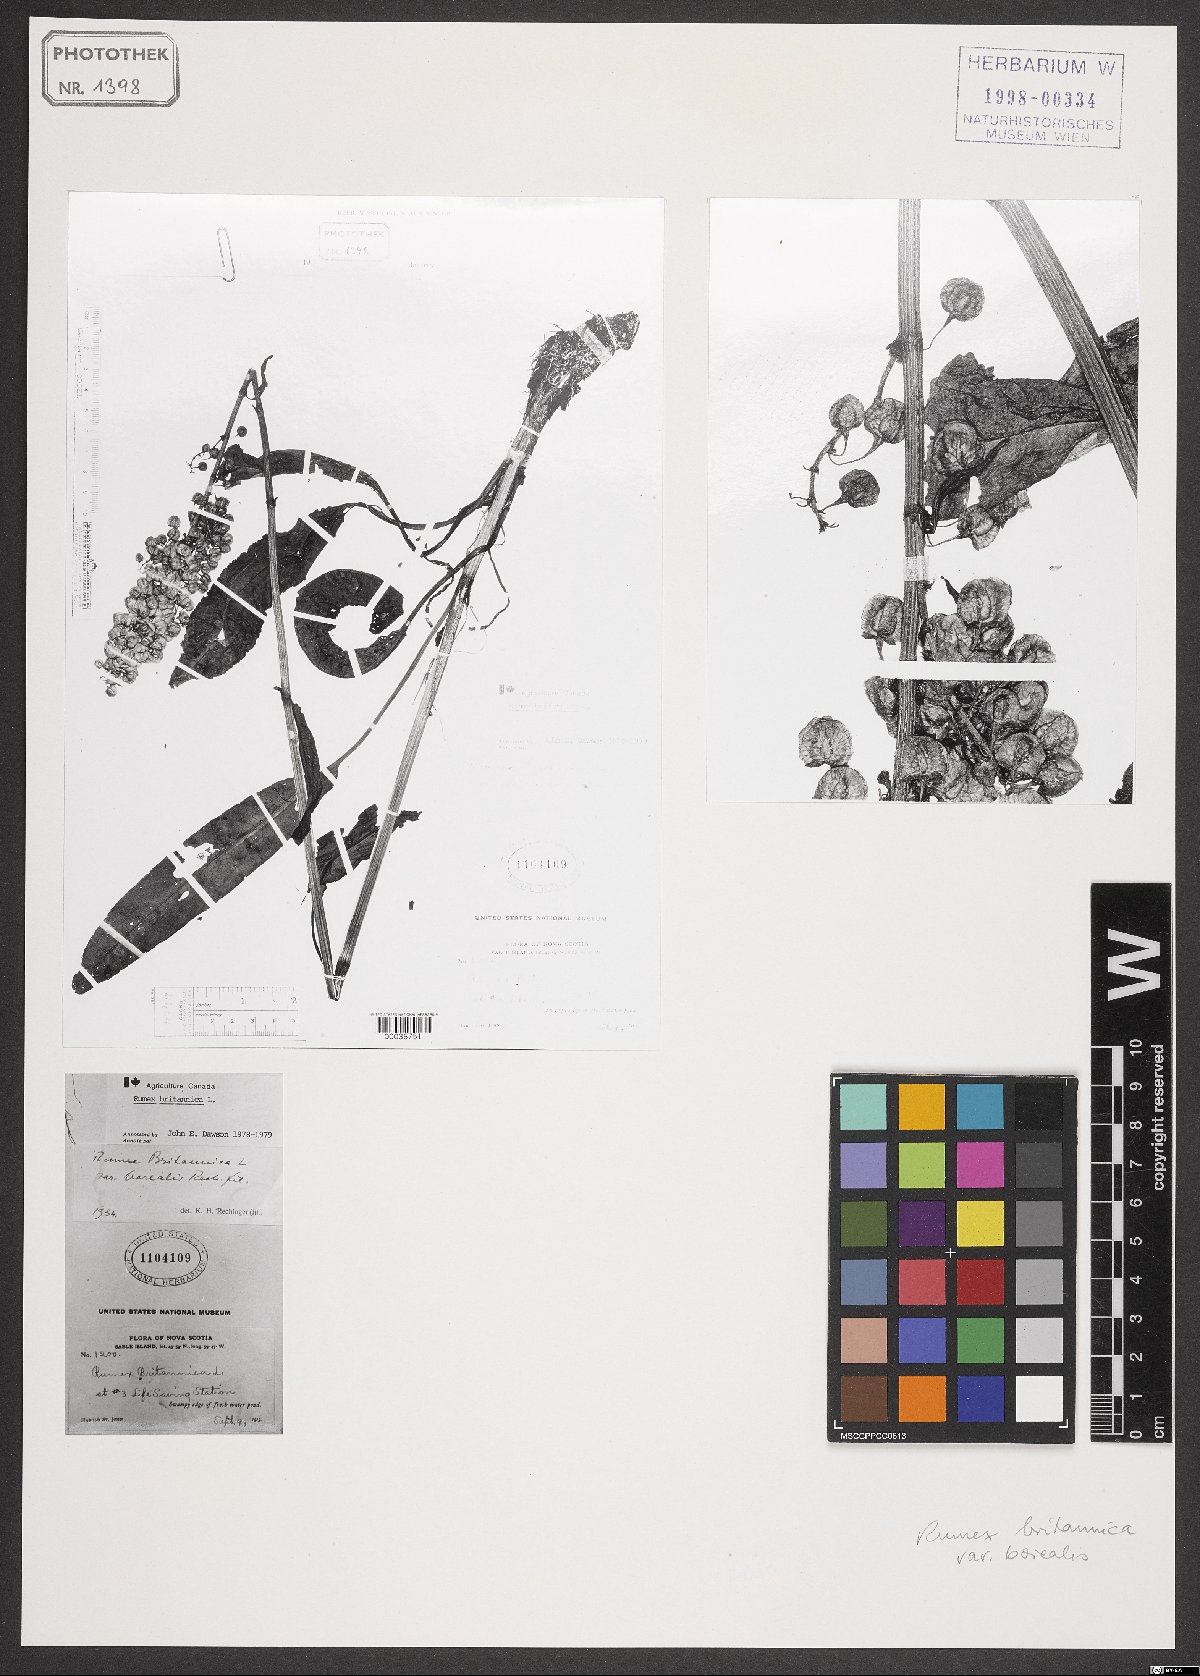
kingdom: Plantae
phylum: Tracheophyta
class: Magnoliopsida
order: Caryophyllales
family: Polygonaceae
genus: Rumex
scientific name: Rumex britannica
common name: British dock
